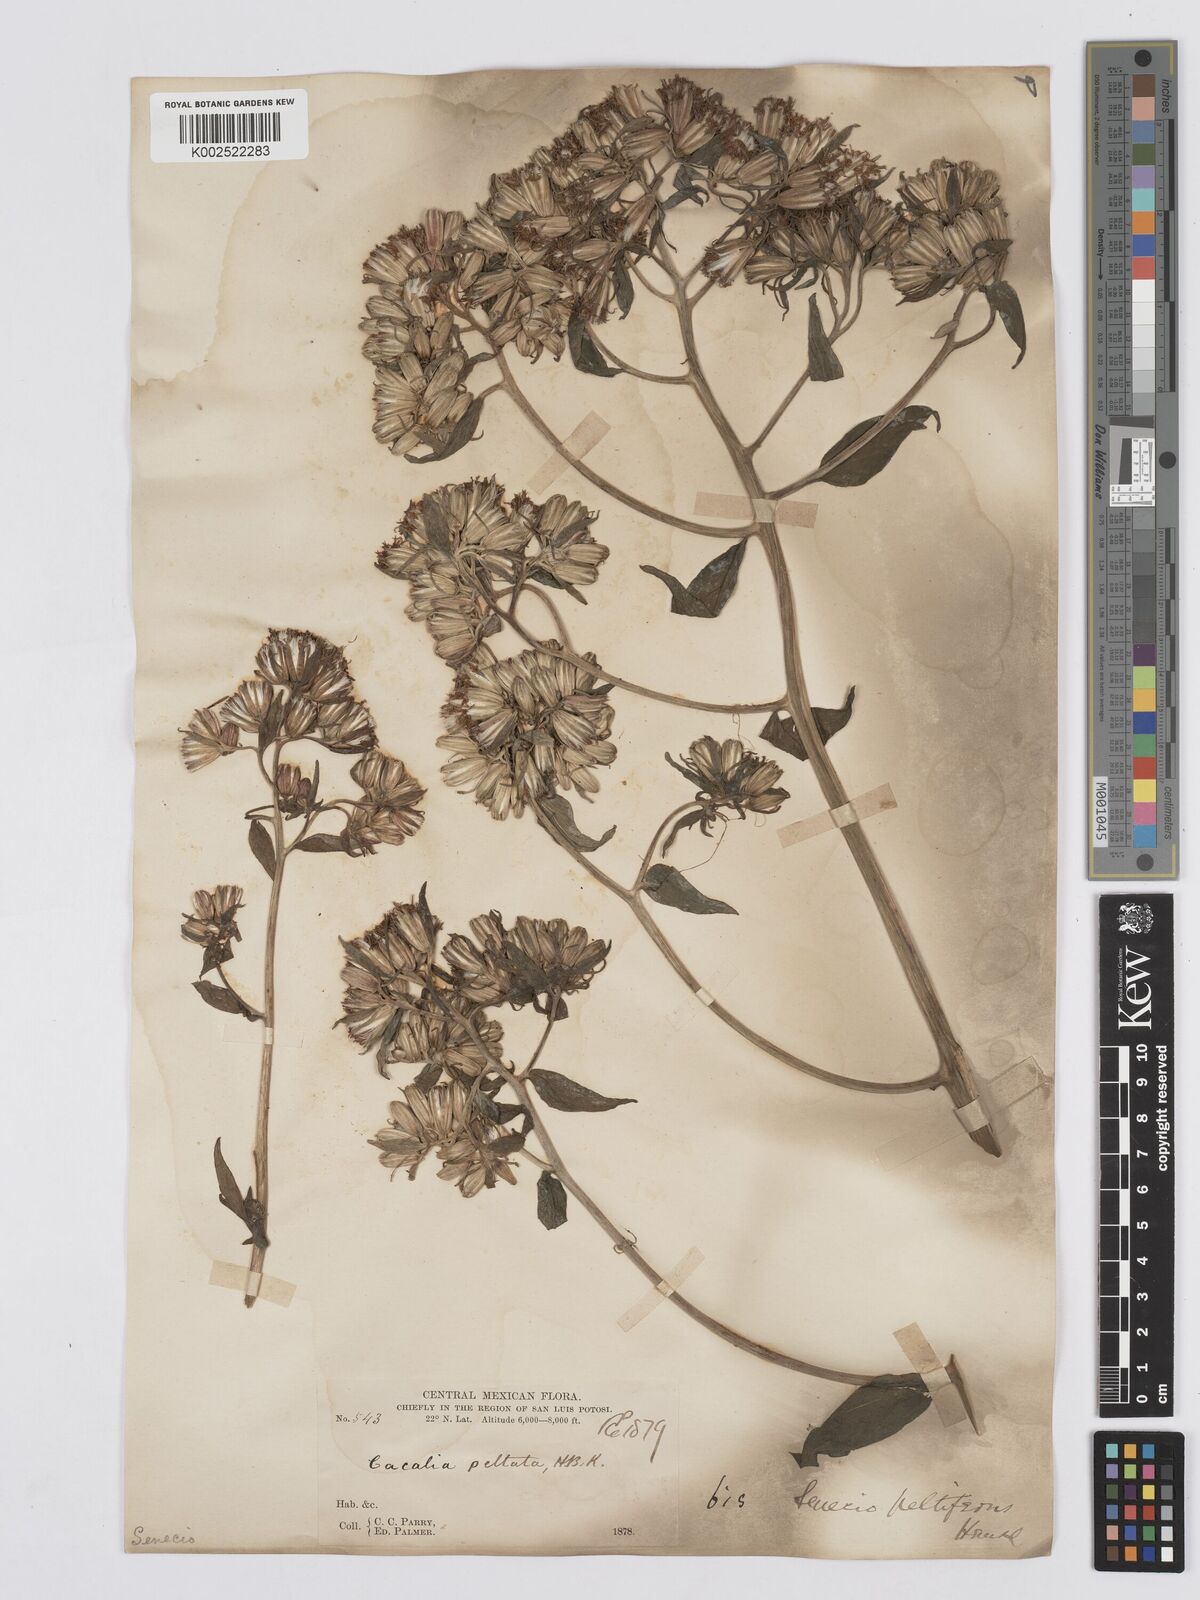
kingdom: Plantae
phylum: Tracheophyta
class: Magnoliopsida
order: Asterales
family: Asteraceae
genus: Psacalium
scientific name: Psacalium peltatum
